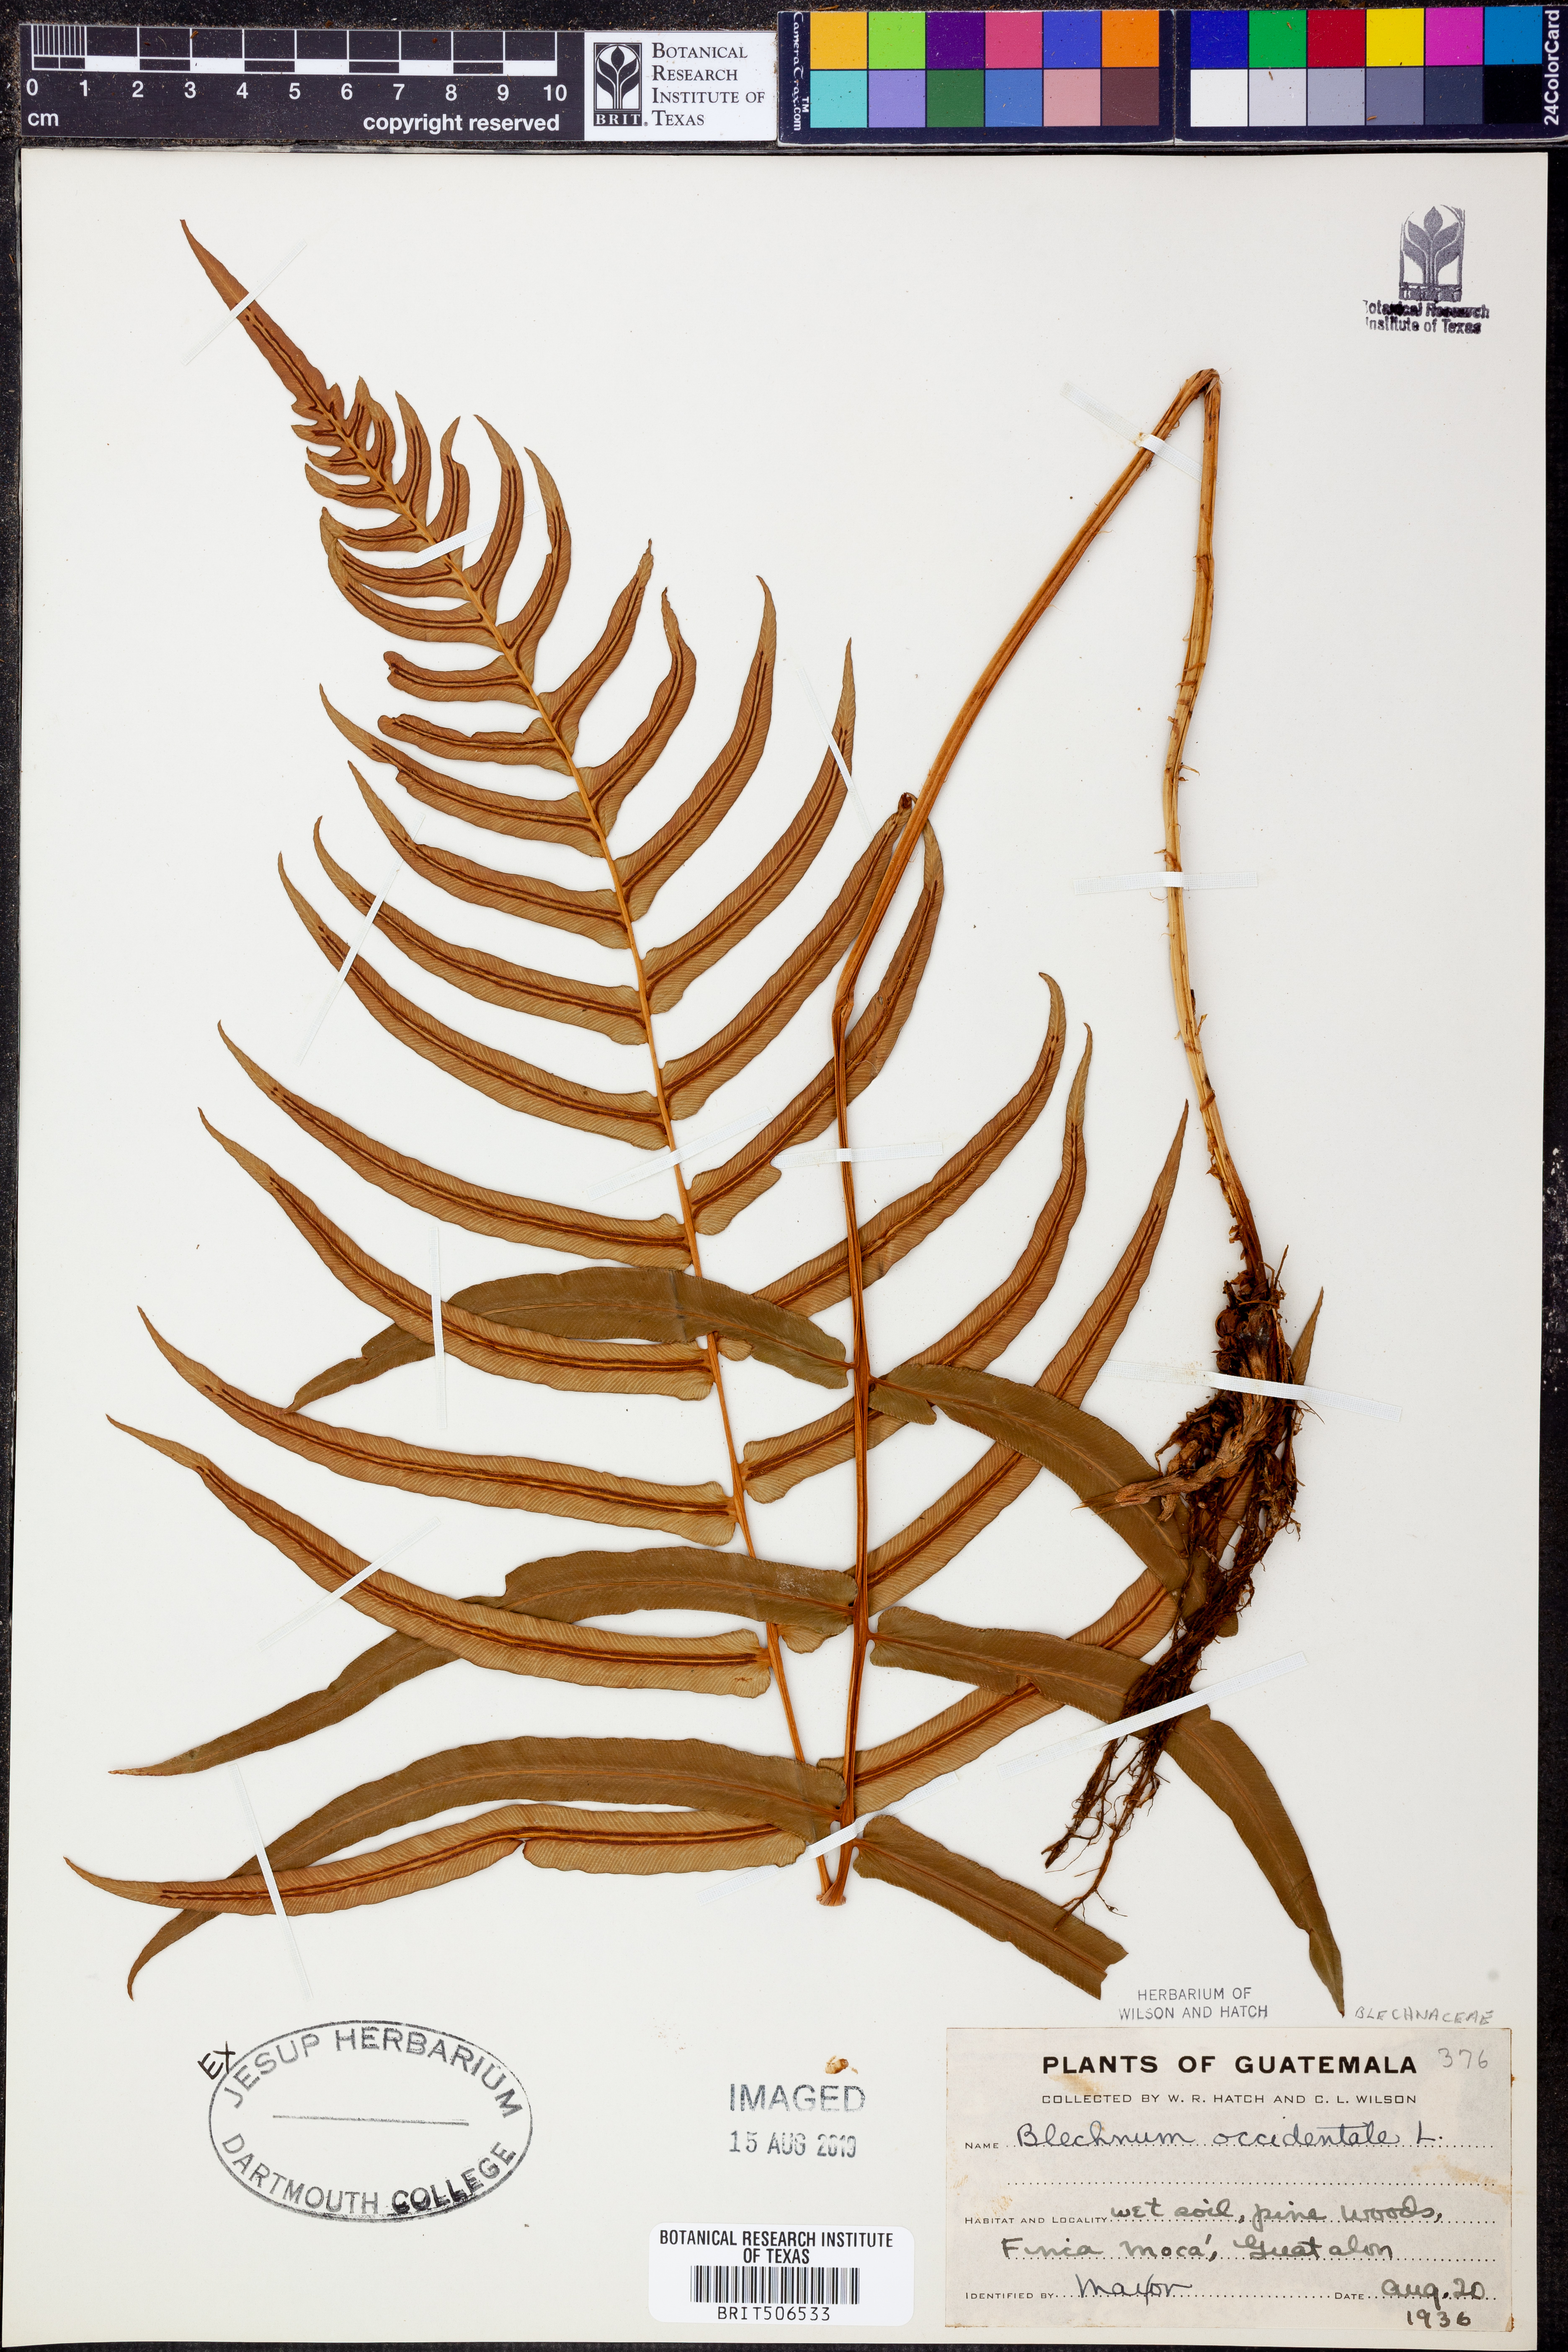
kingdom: Plantae
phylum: Tracheophyta
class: Polypodiopsida
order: Polypodiales
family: Blechnaceae
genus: Blechnum
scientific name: Blechnum occidentale
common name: Hammock fern
